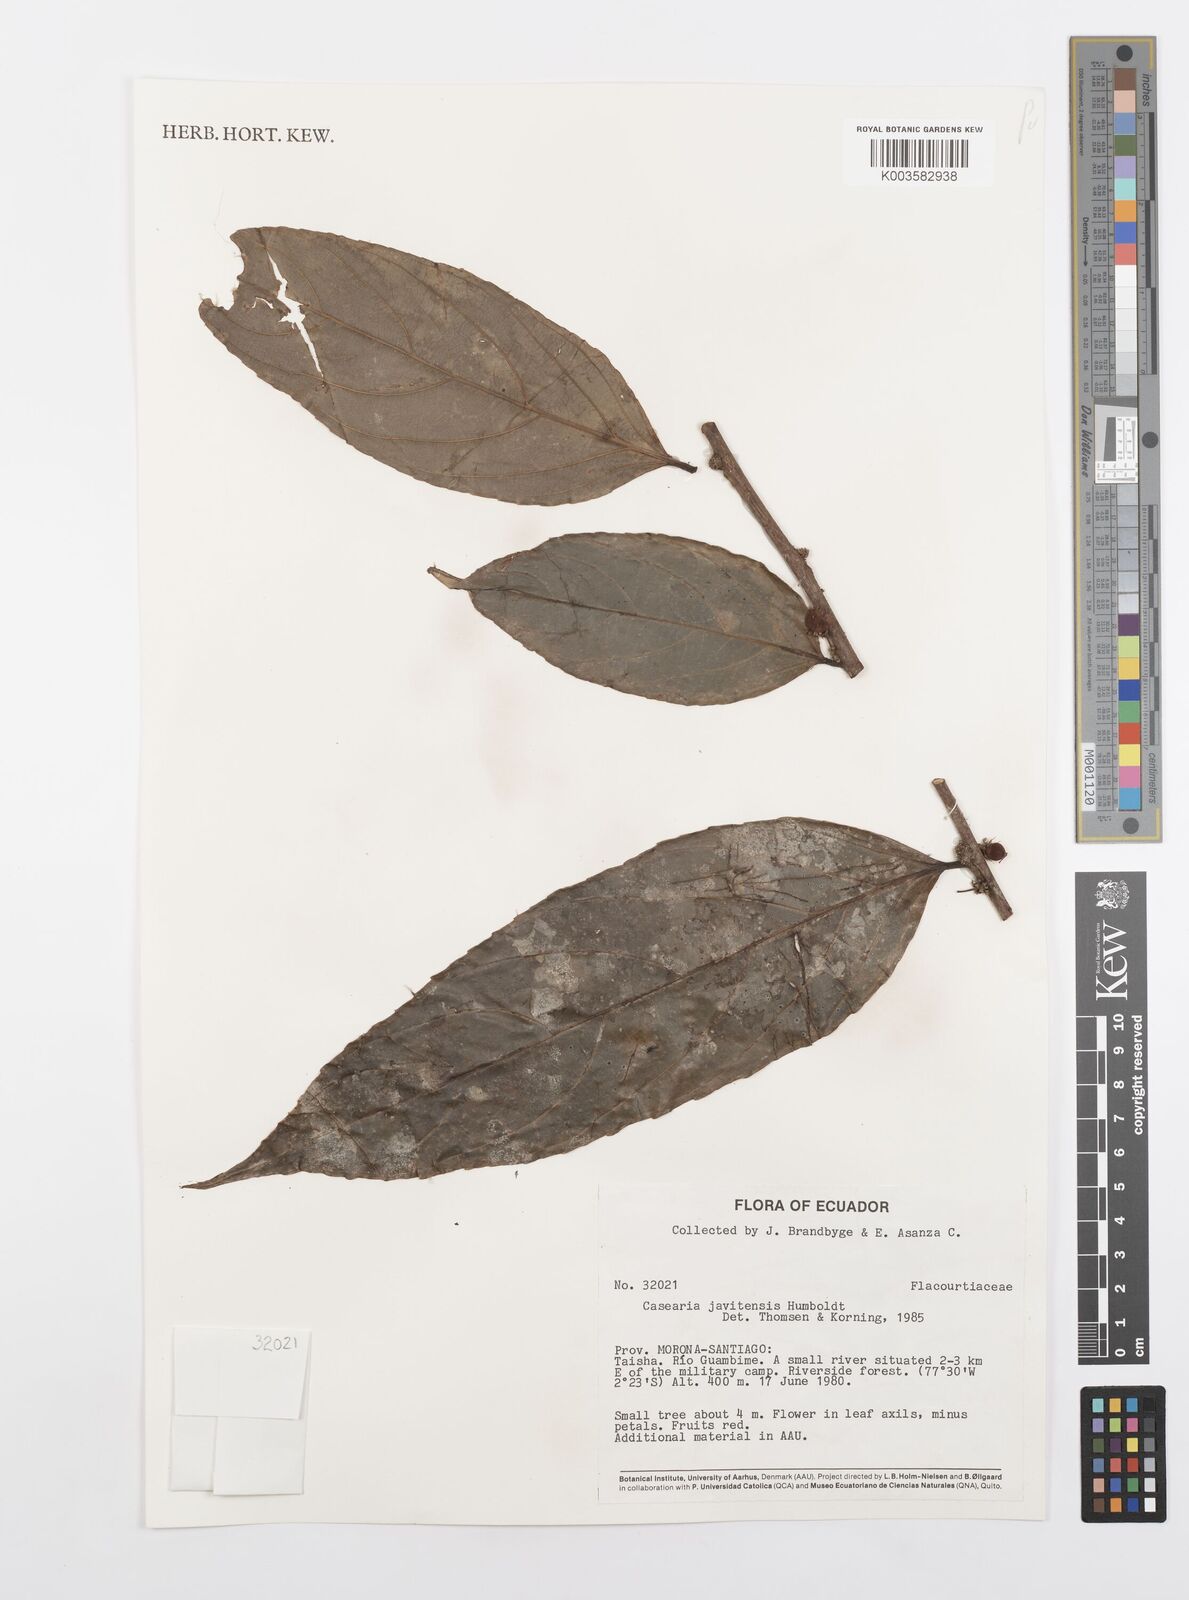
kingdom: Plantae
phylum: Tracheophyta
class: Magnoliopsida
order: Malpighiales
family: Salicaceae
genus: Piparea
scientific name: Piparea multiflora
